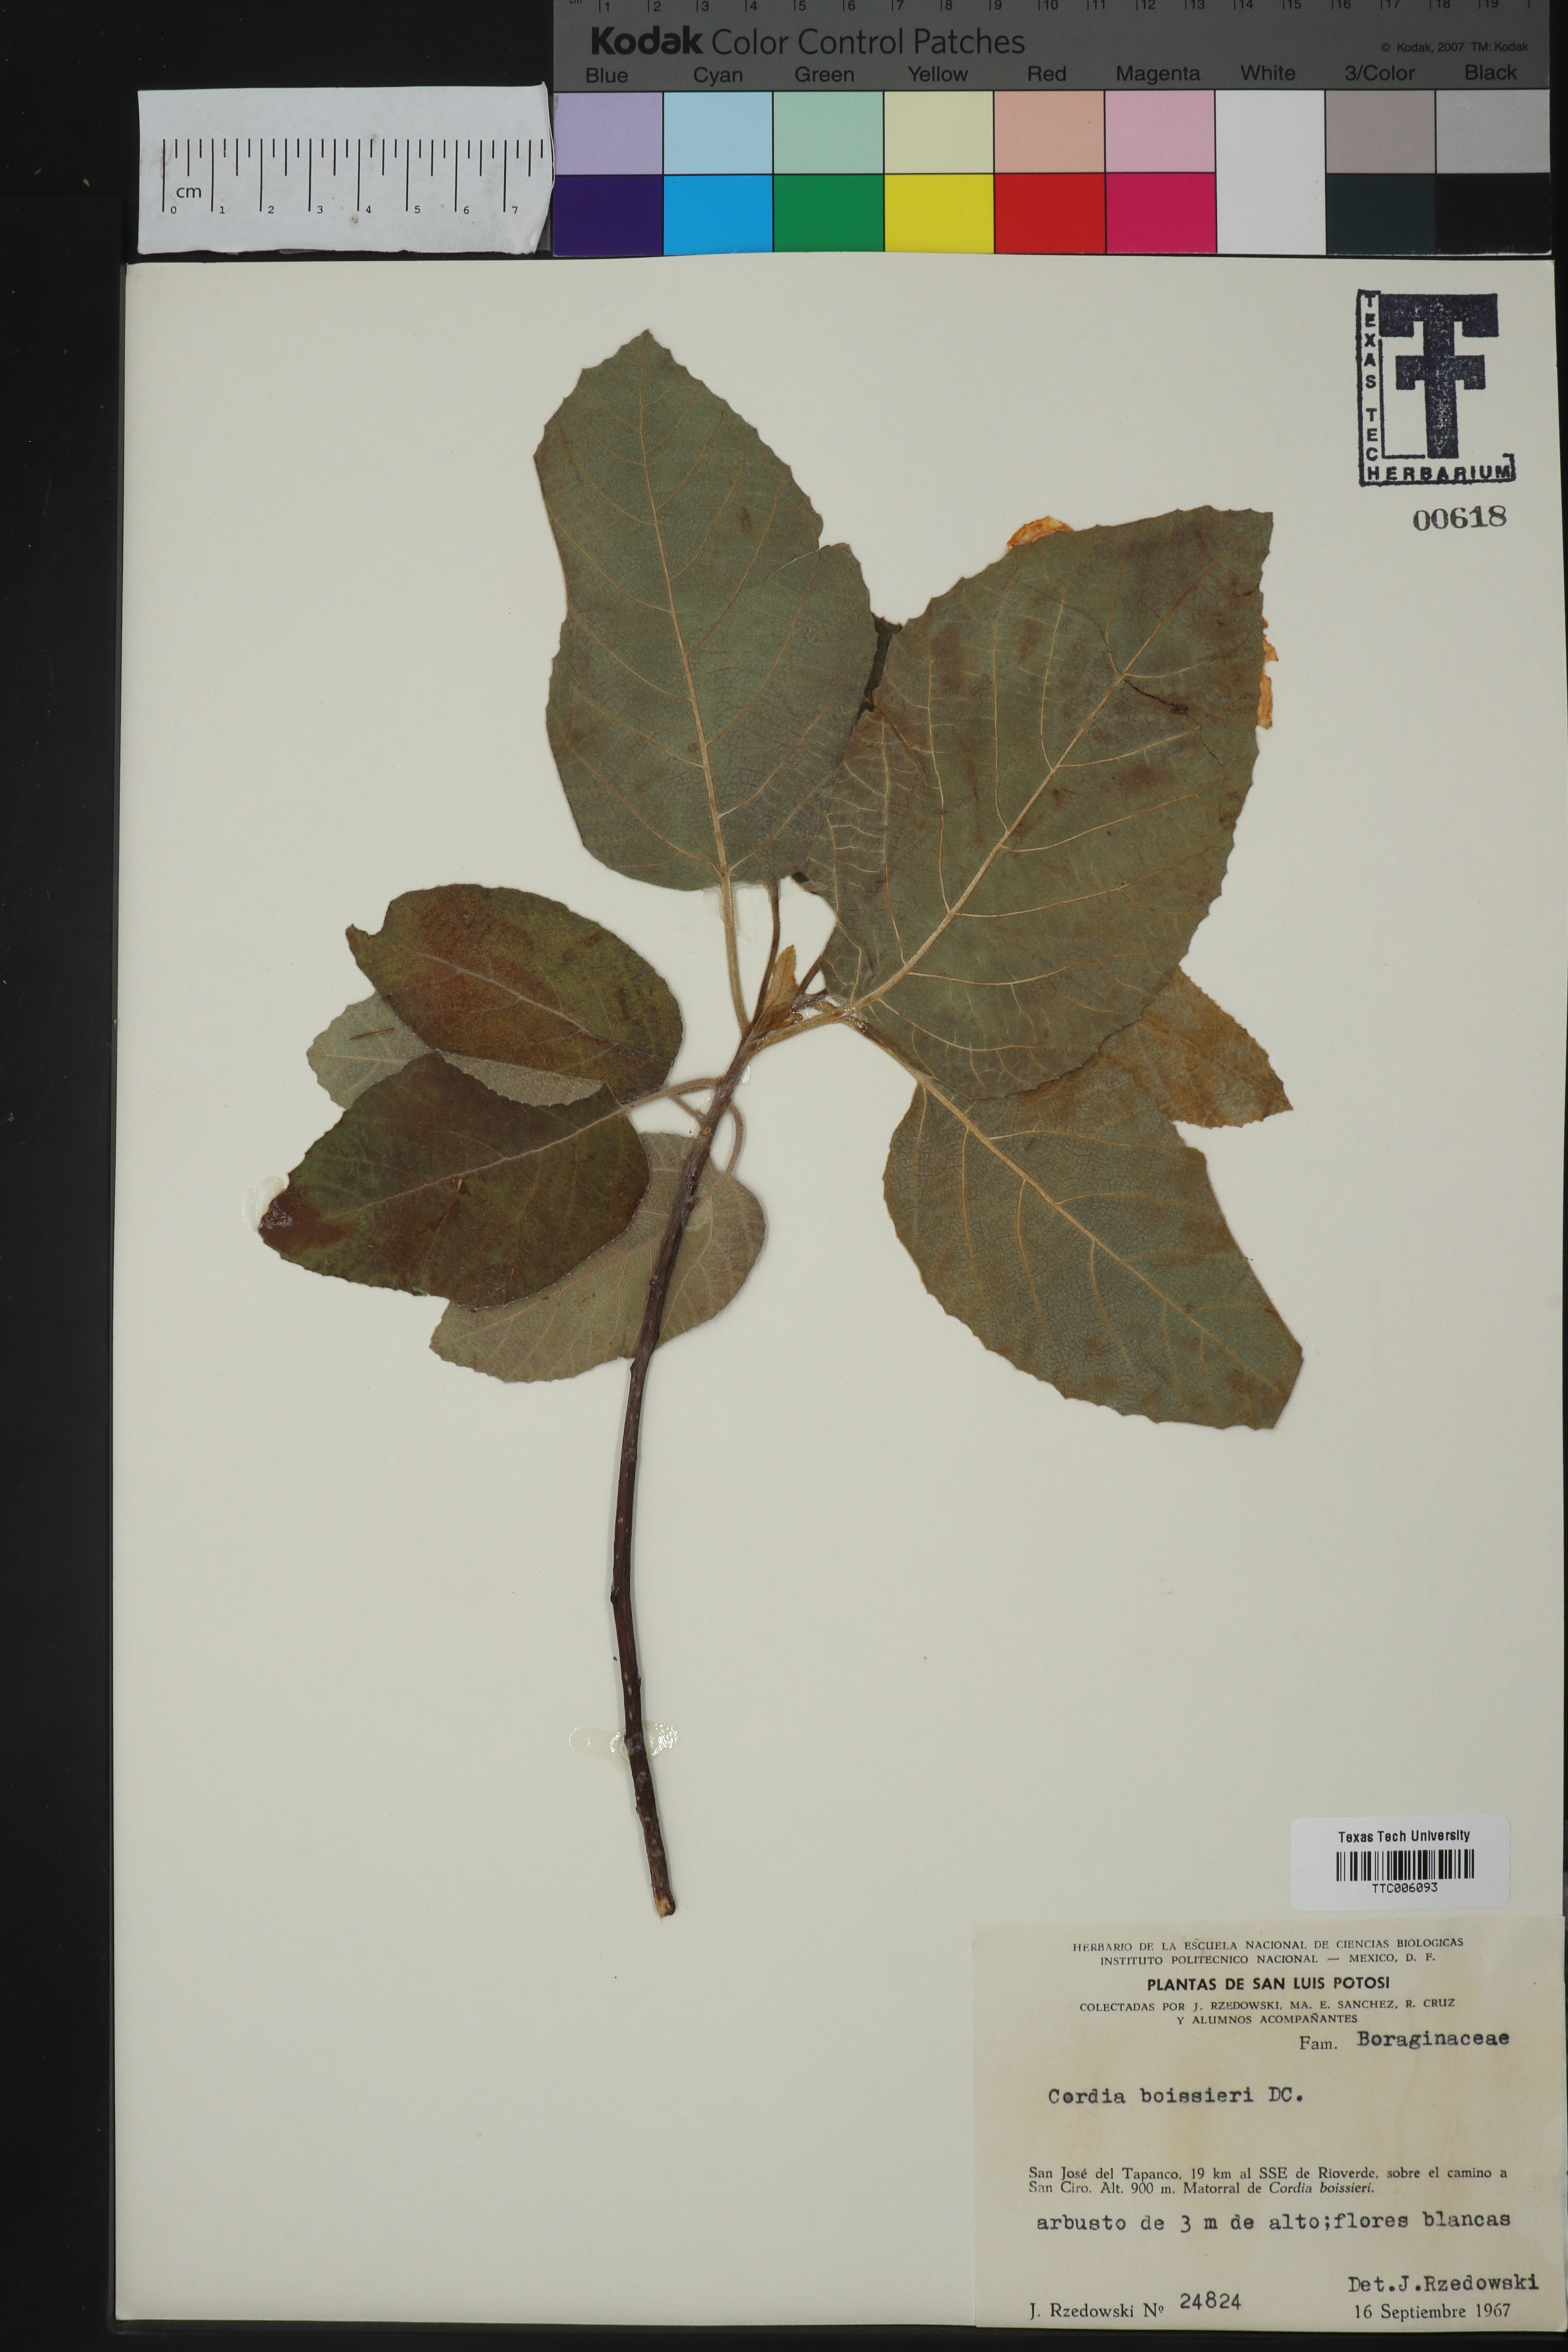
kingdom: Plantae
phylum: Tracheophyta
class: Magnoliopsida
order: Boraginales
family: Cordiaceae
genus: Cordia
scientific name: Cordia boissieri
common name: Mexican-olive
